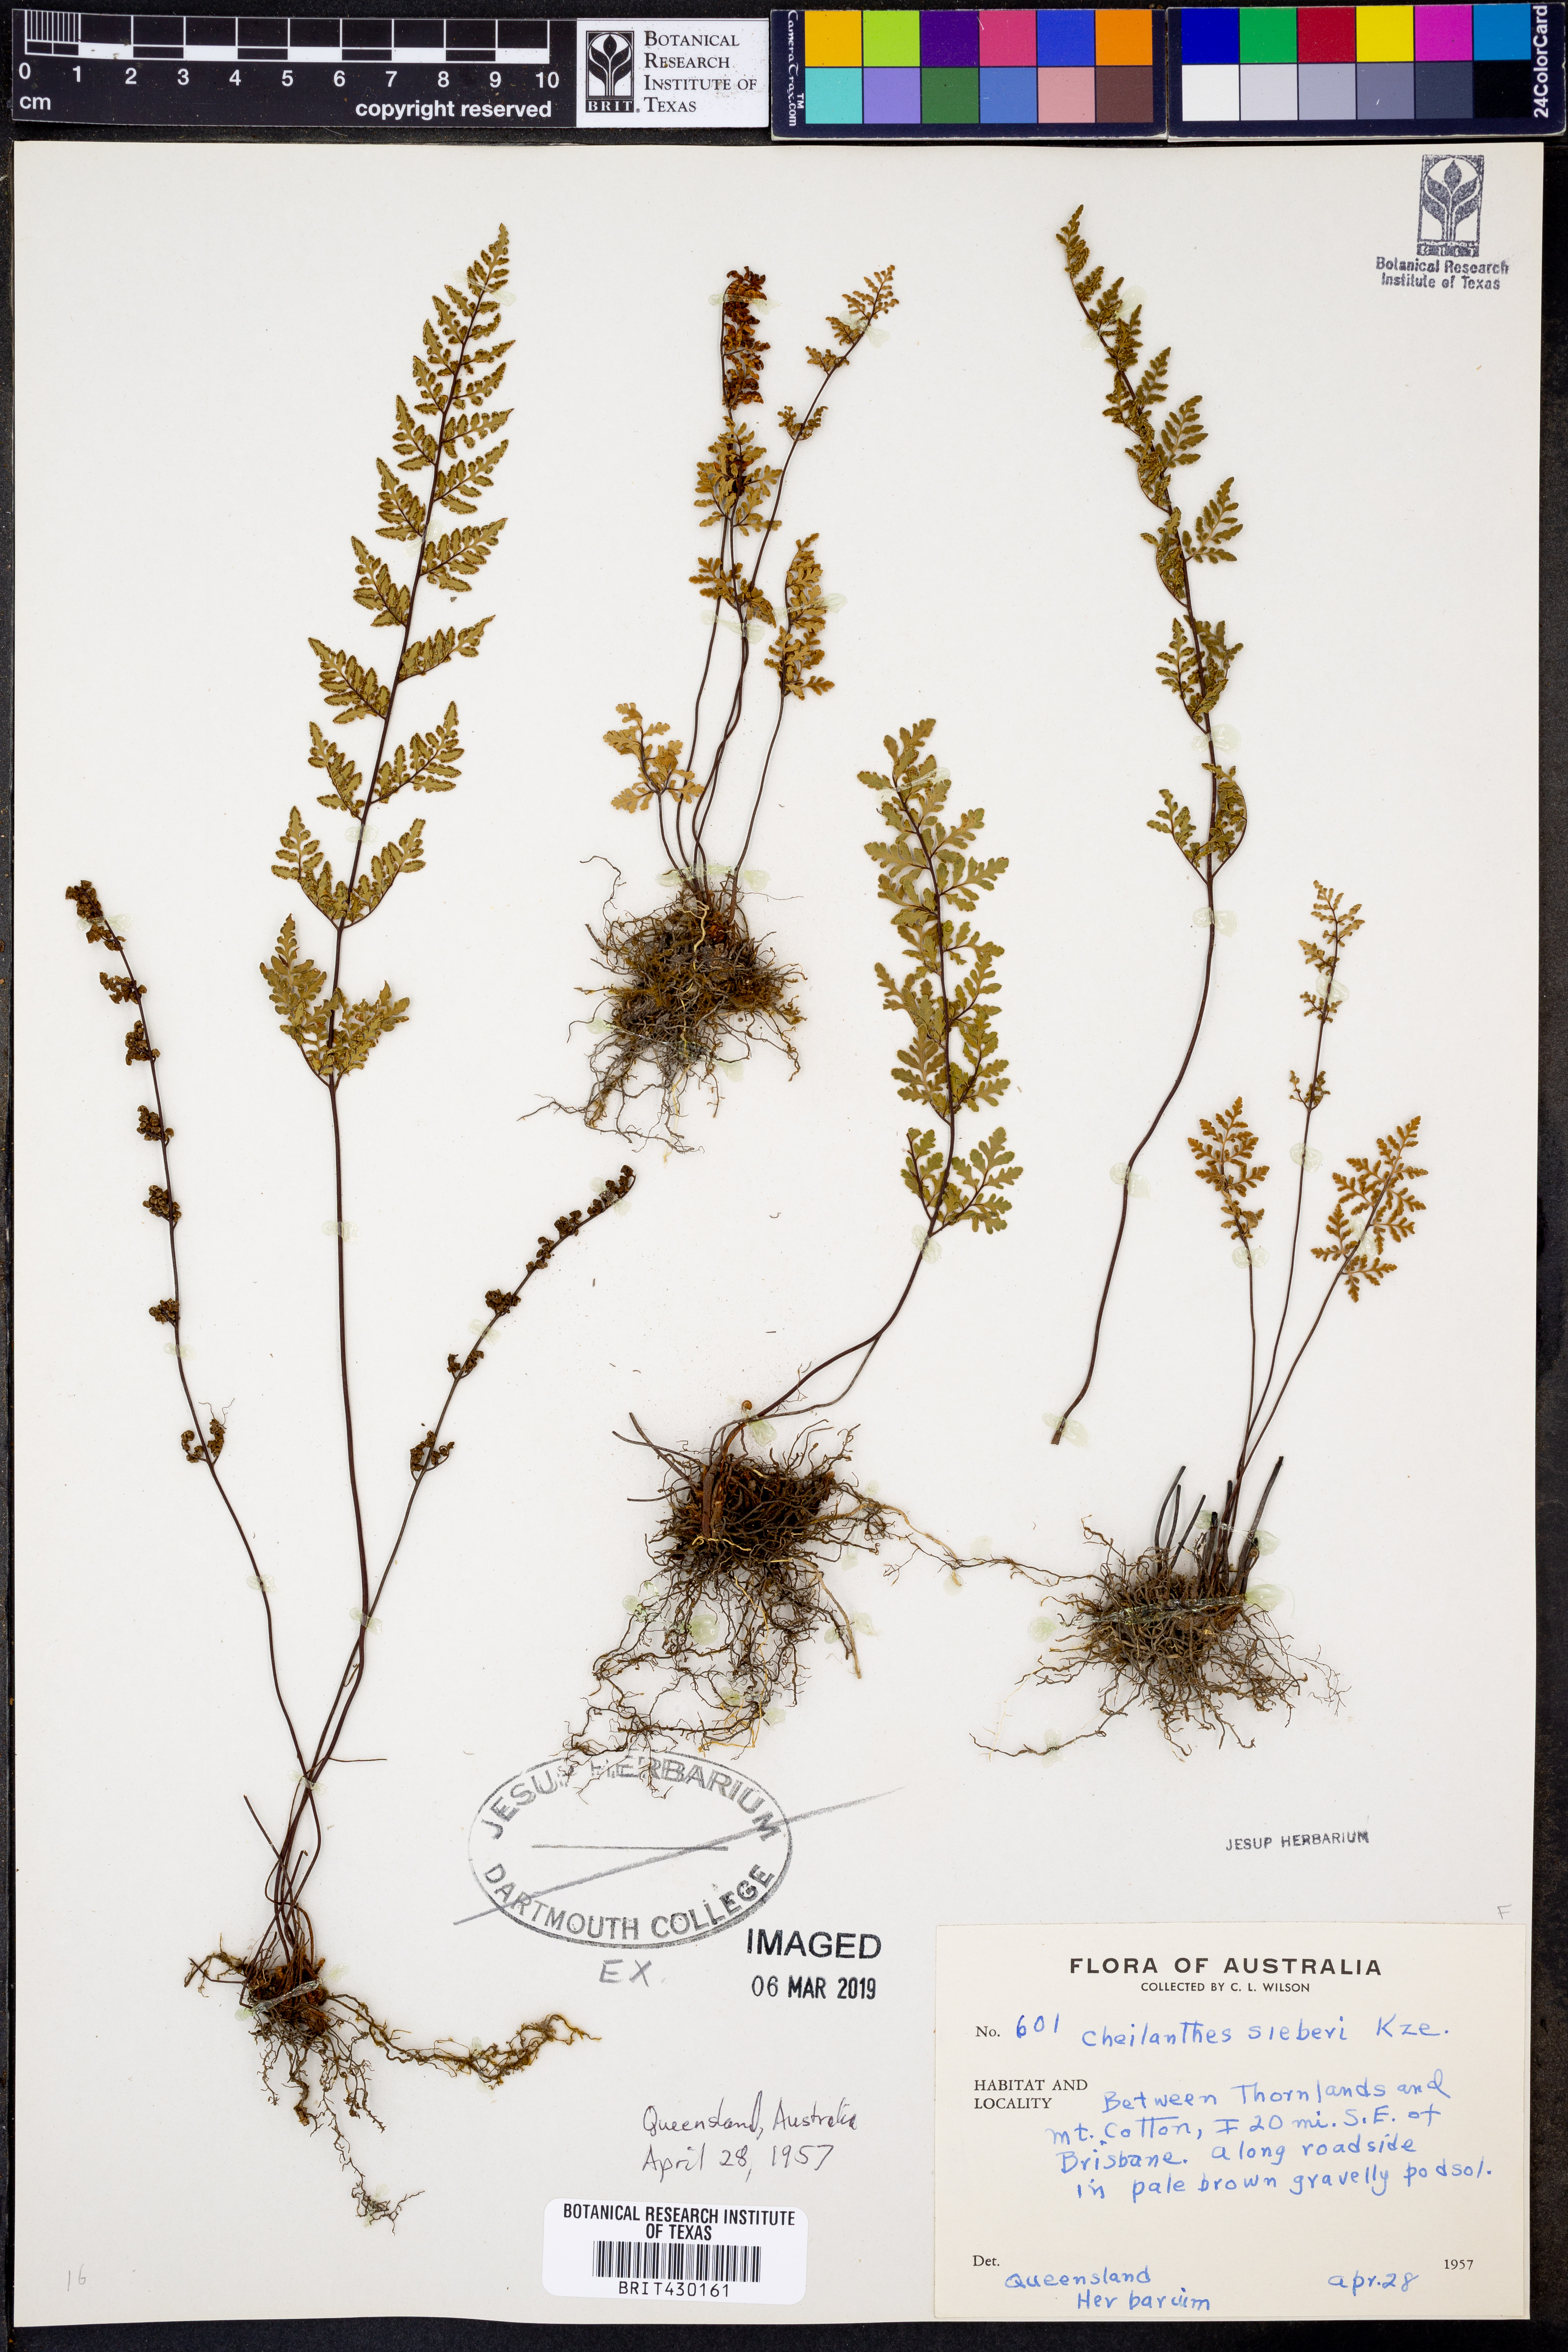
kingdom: Plantae
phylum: Tracheophyta
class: Polypodiopsida
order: Polypodiales
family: Pteridaceae
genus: Cheilanthes
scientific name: Cheilanthes sieberi
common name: Mulga fern
